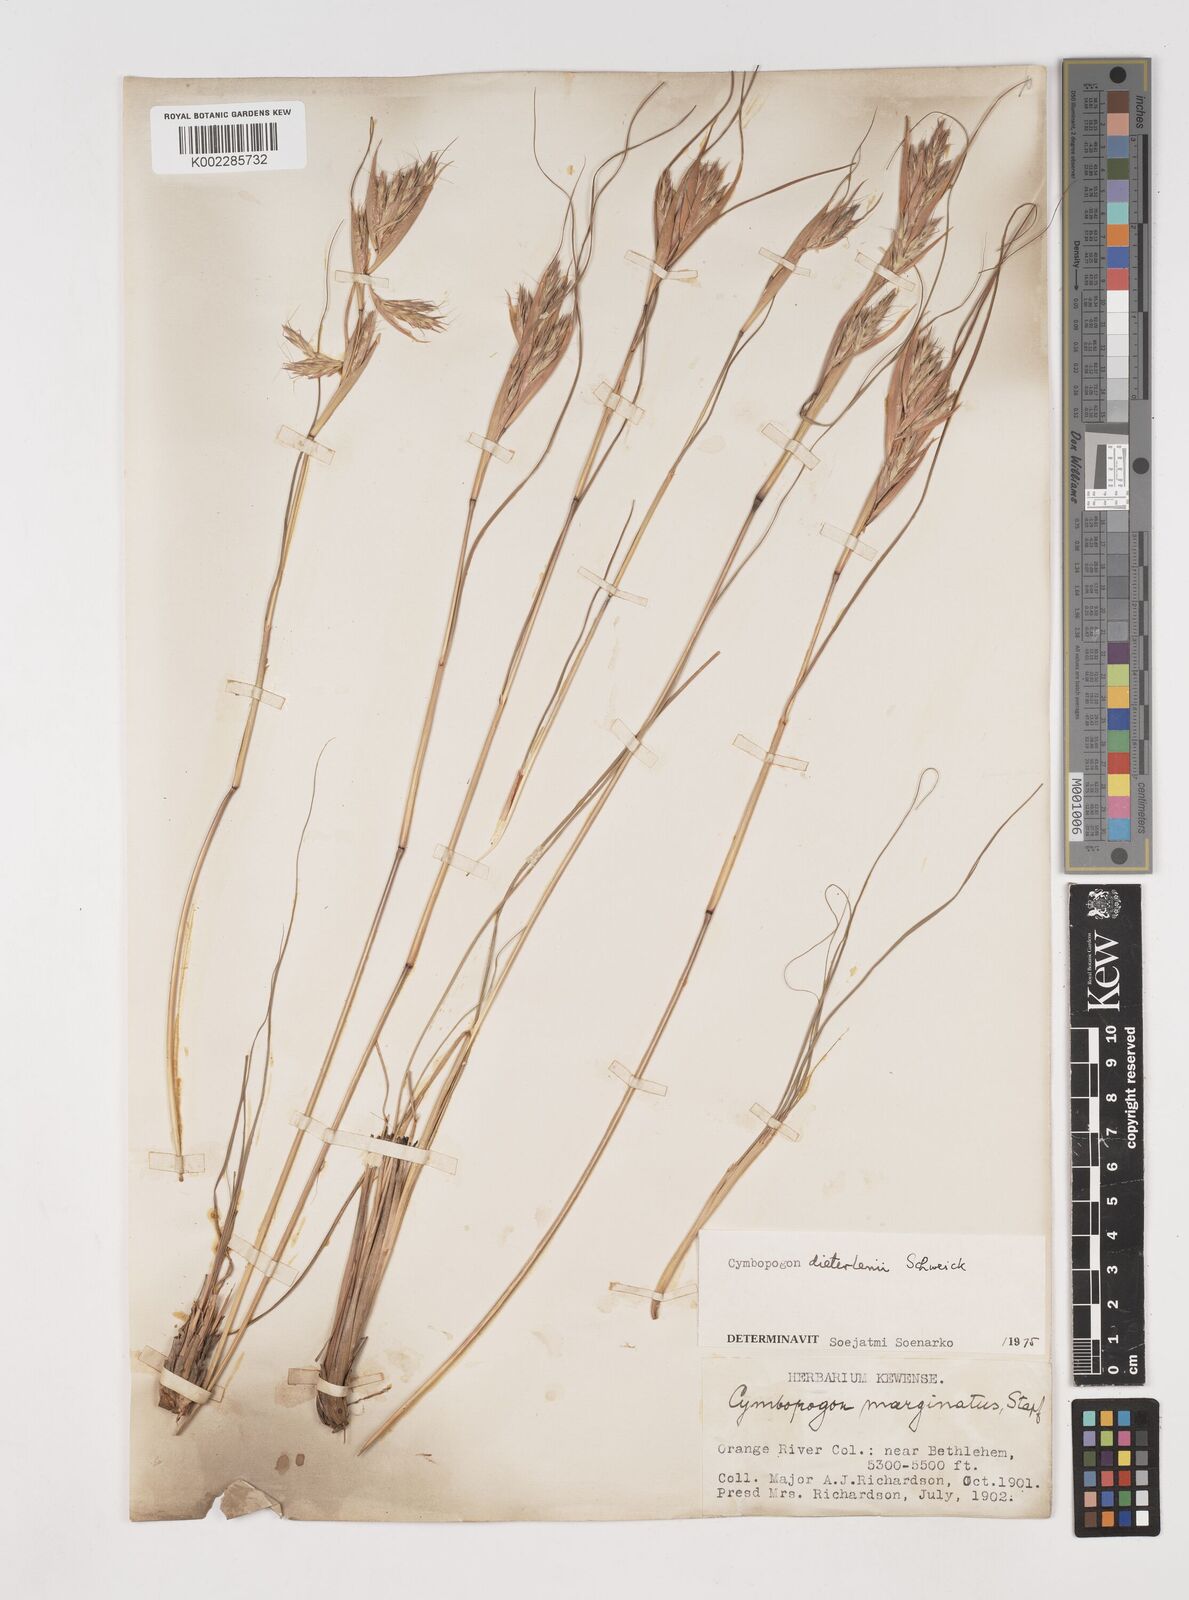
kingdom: Plantae
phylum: Tracheophyta
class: Liliopsida
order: Poales
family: Poaceae
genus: Cymbopogon
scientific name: Cymbopogon dieterlenii
